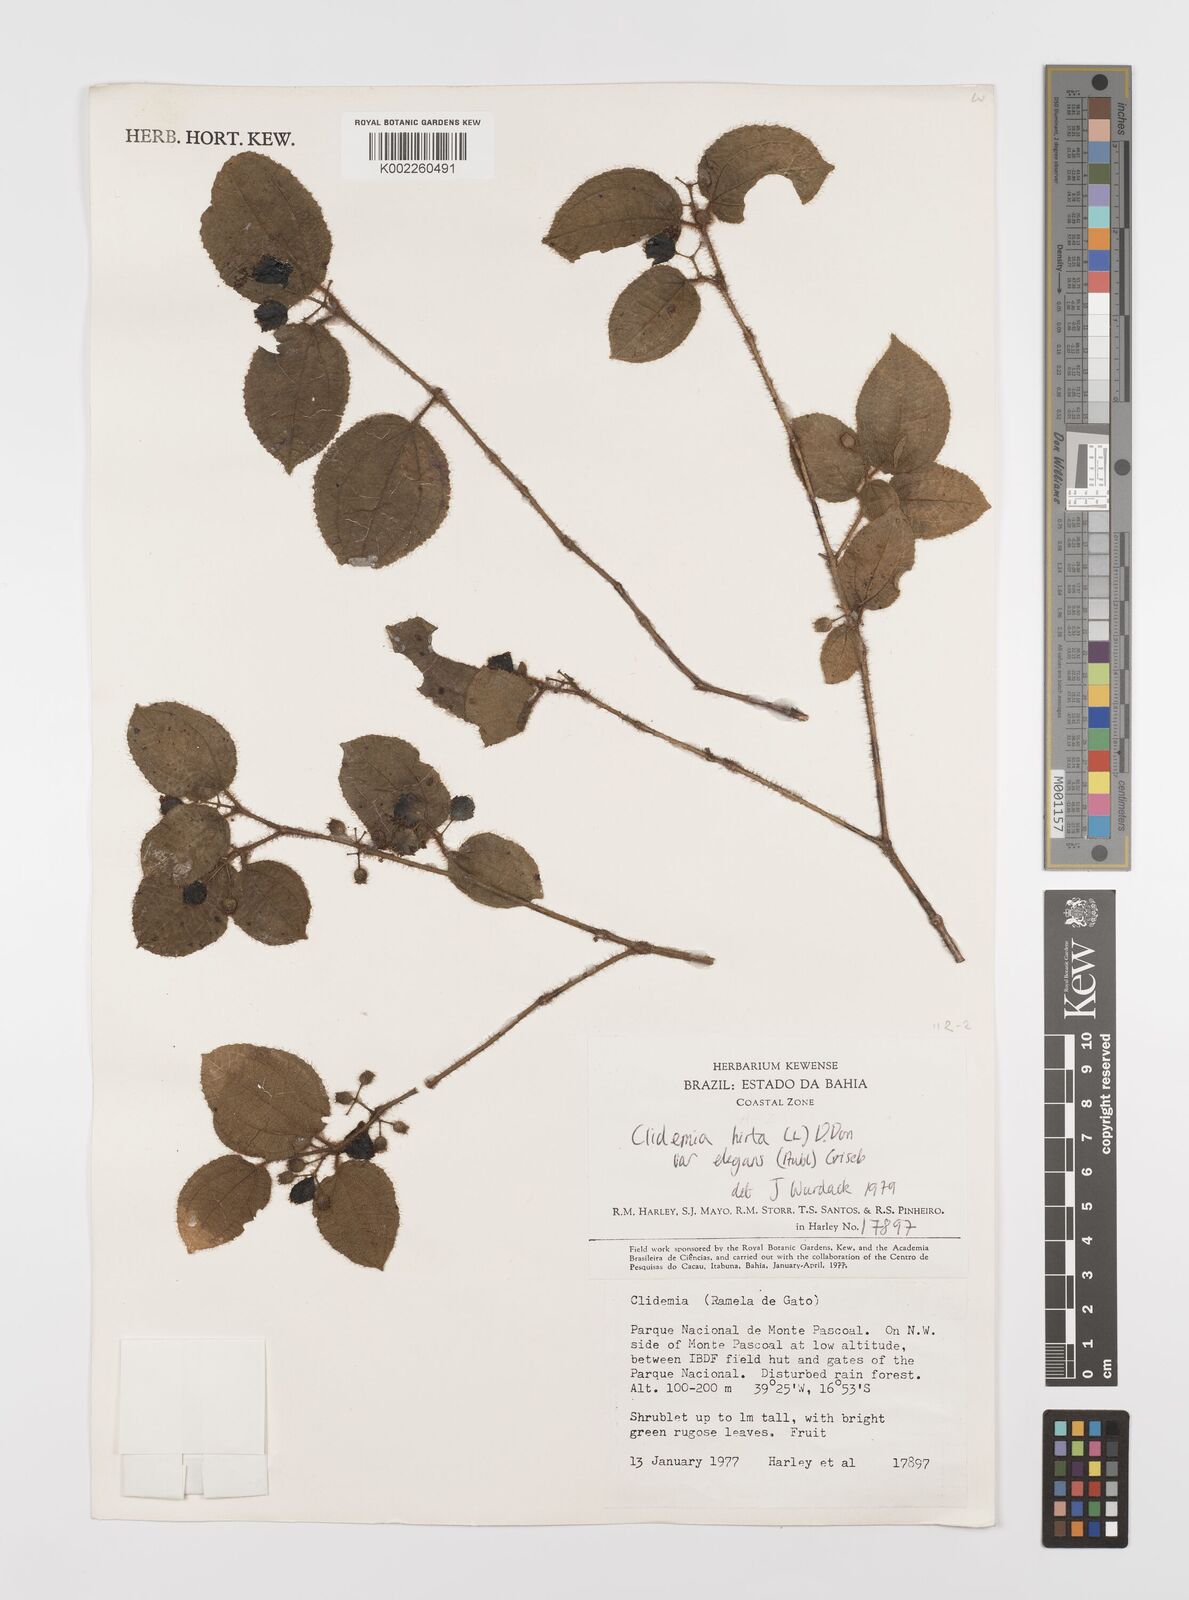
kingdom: Plantae
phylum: Tracheophyta
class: Magnoliopsida
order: Myrtales
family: Melastomataceae
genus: Miconia
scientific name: Miconia crenata
